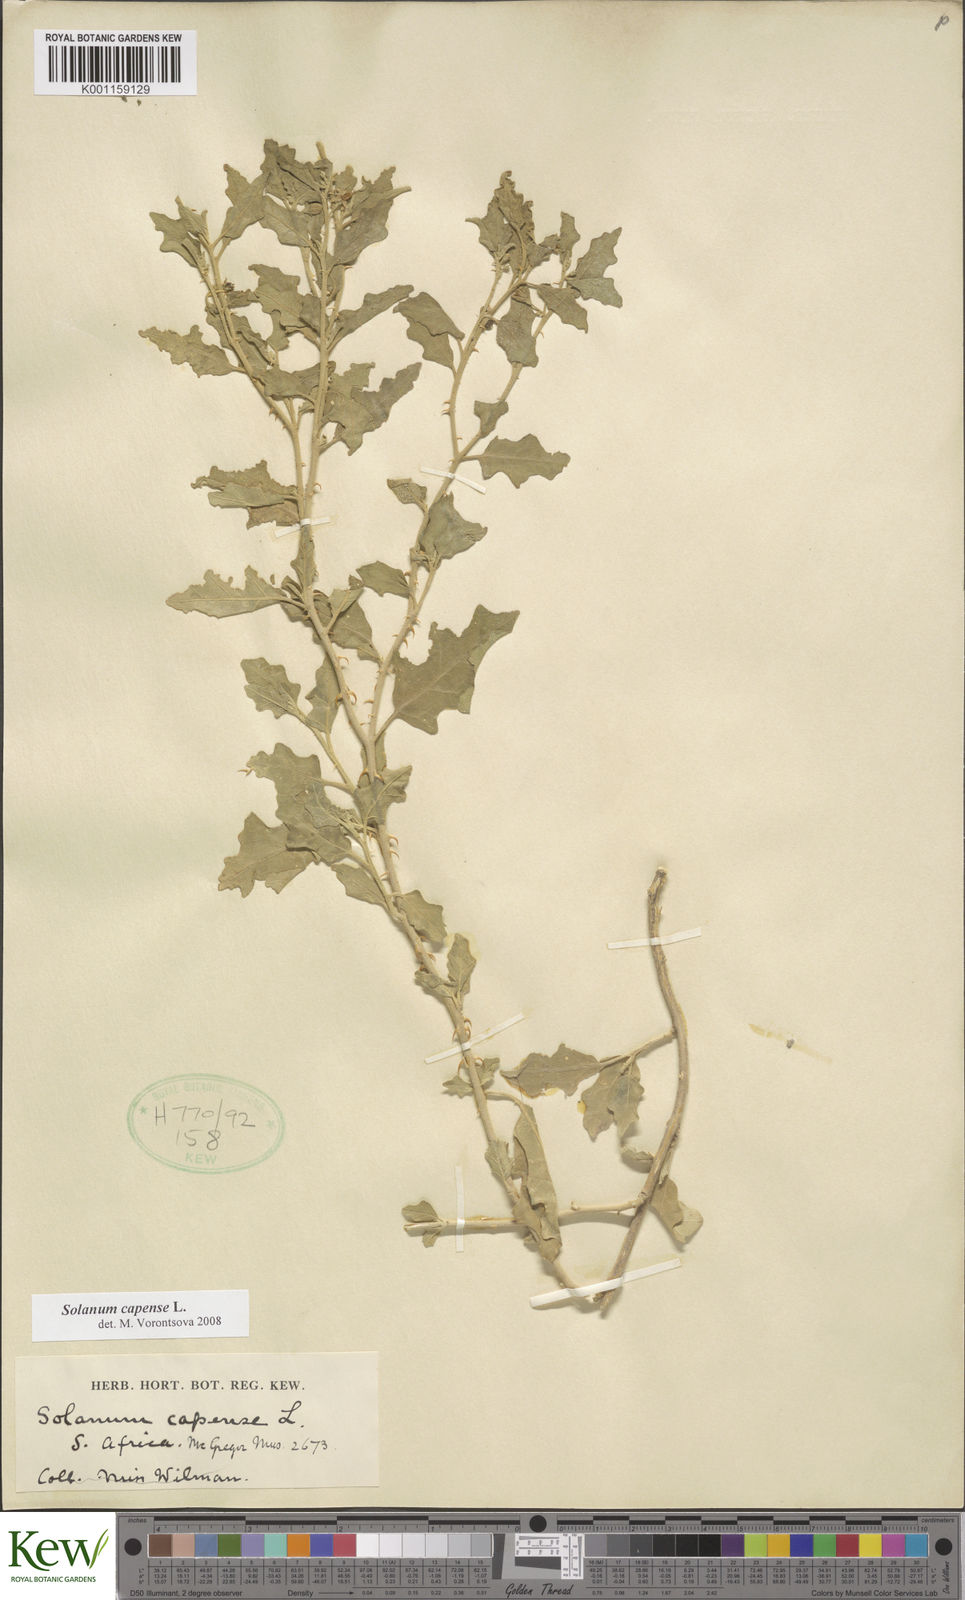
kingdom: Plantae
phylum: Tracheophyta
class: Magnoliopsida
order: Solanales
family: Solanaceae
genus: Solanum
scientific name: Solanum capense
